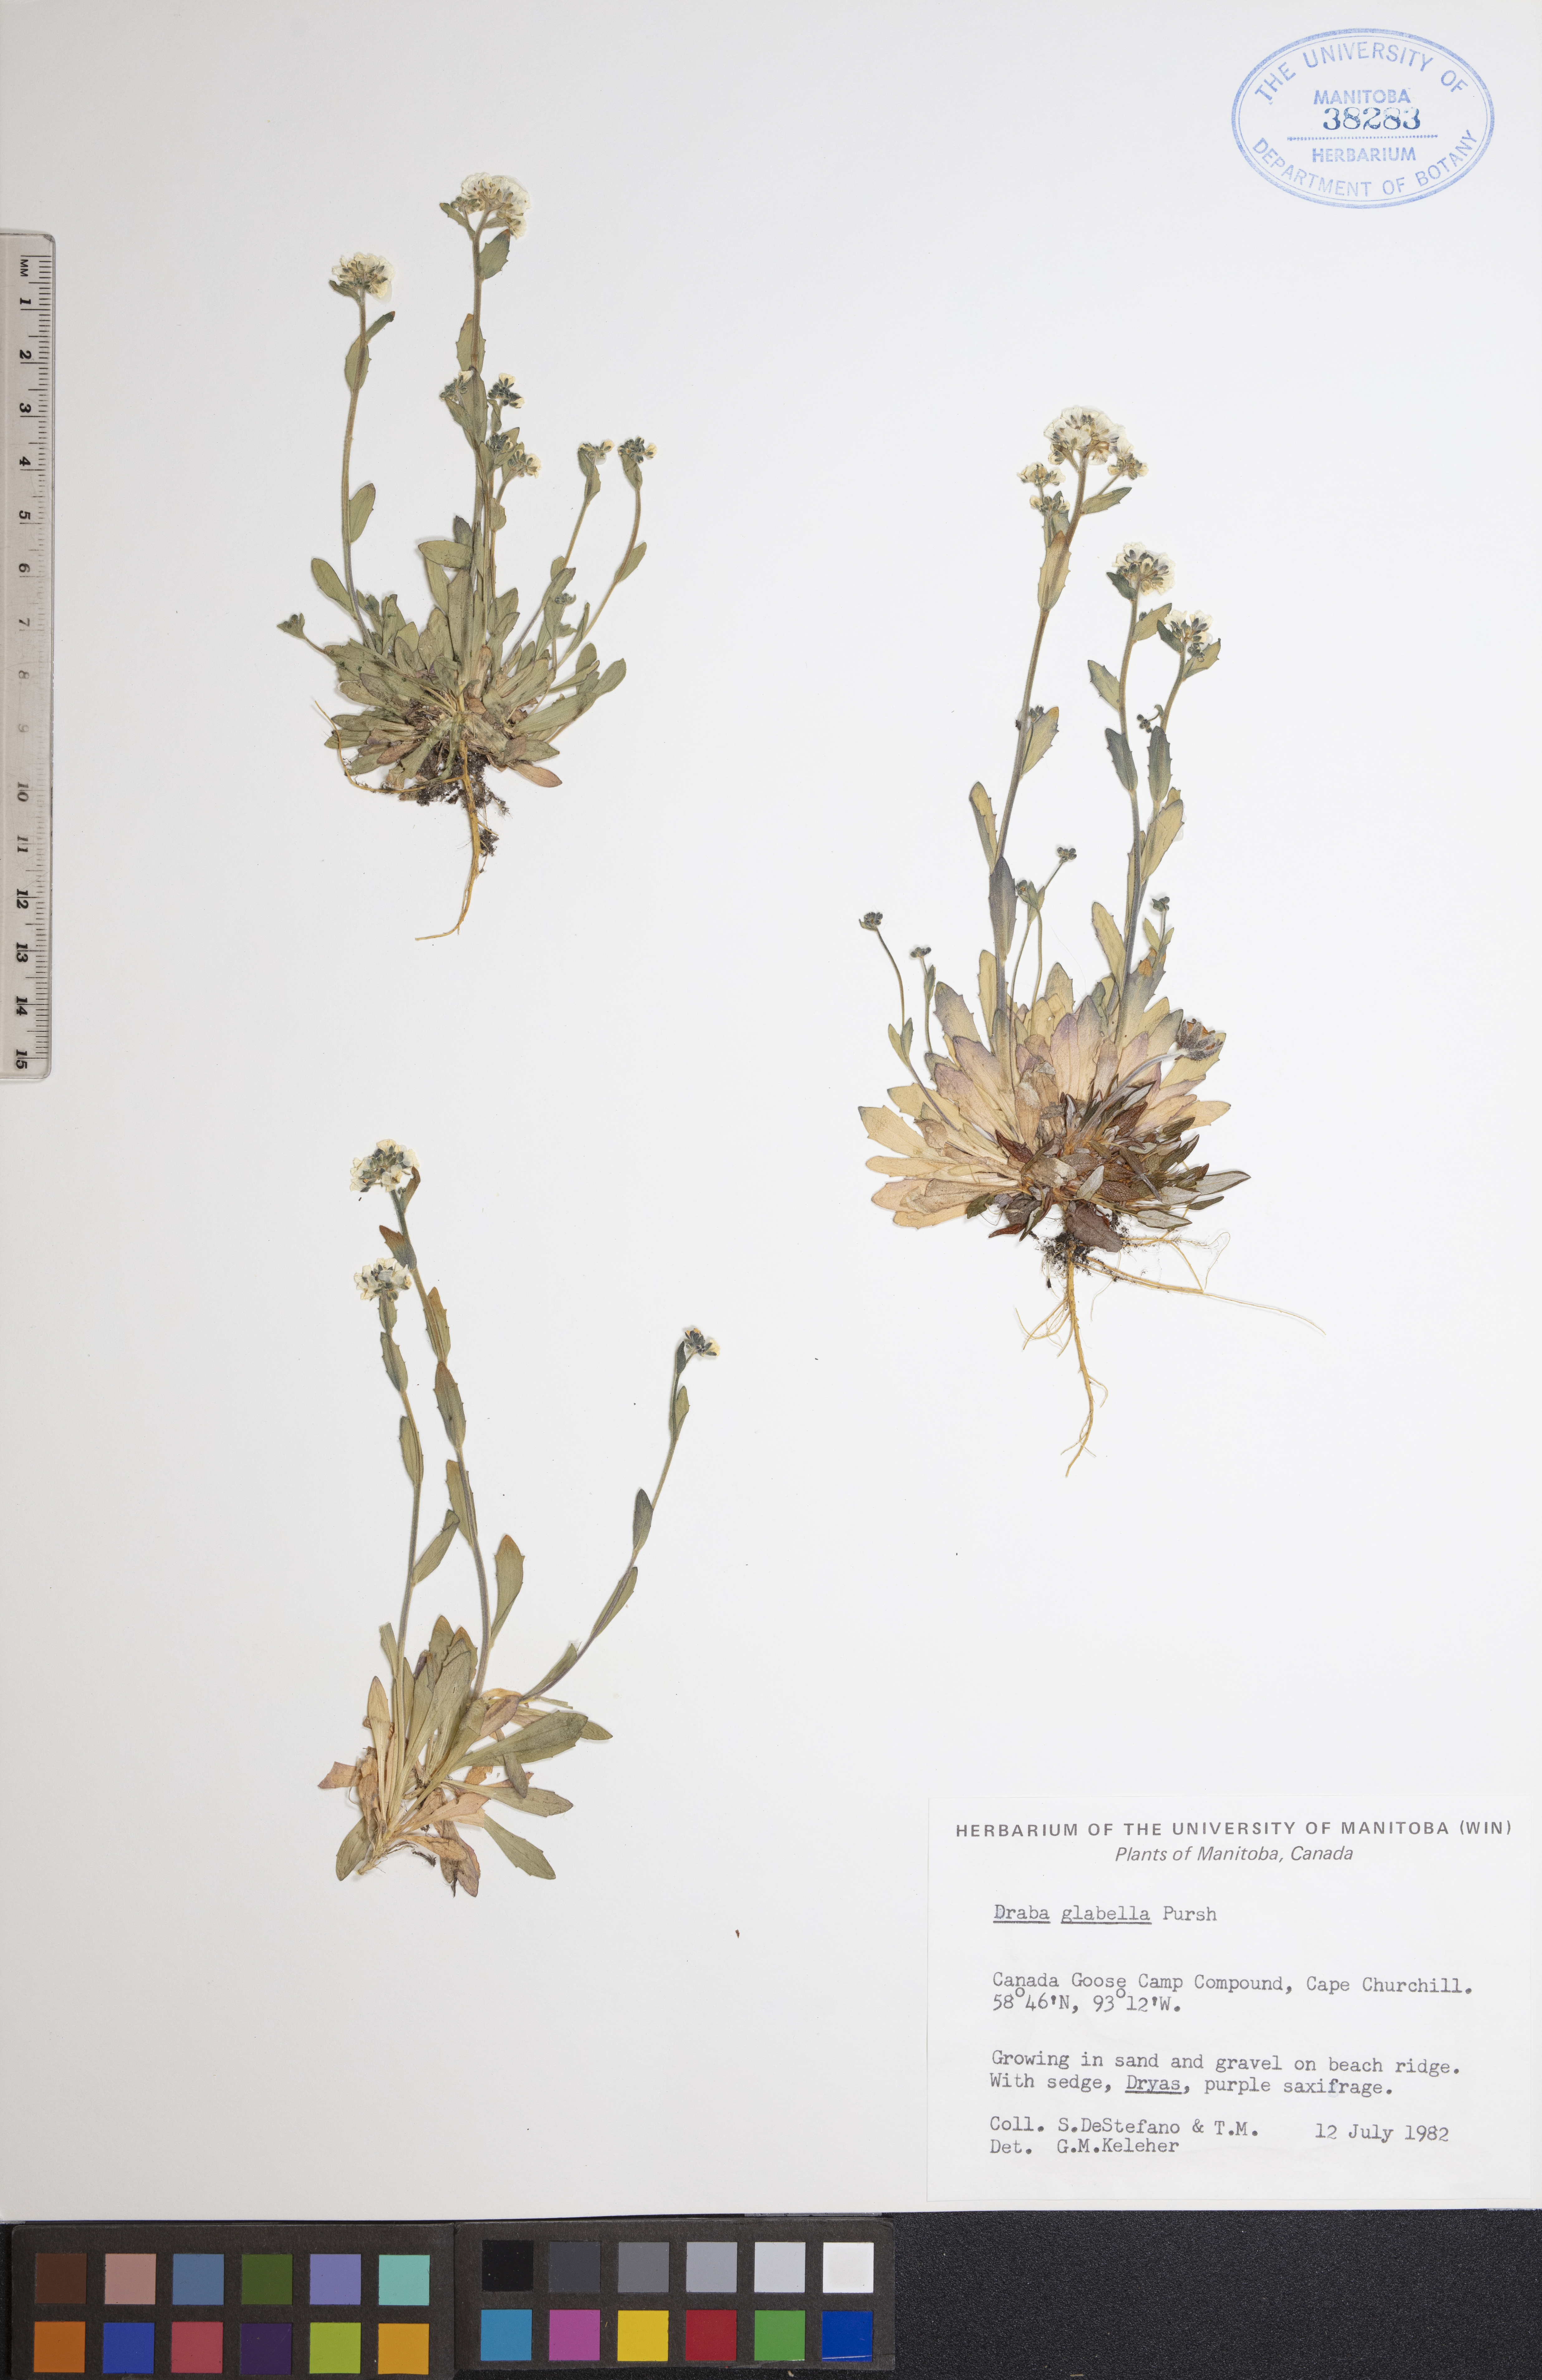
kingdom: Plantae
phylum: Tracheophyta
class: Magnoliopsida
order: Brassicales
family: Brassicaceae
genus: Draba
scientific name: Draba glabella
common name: Glaucous draba
